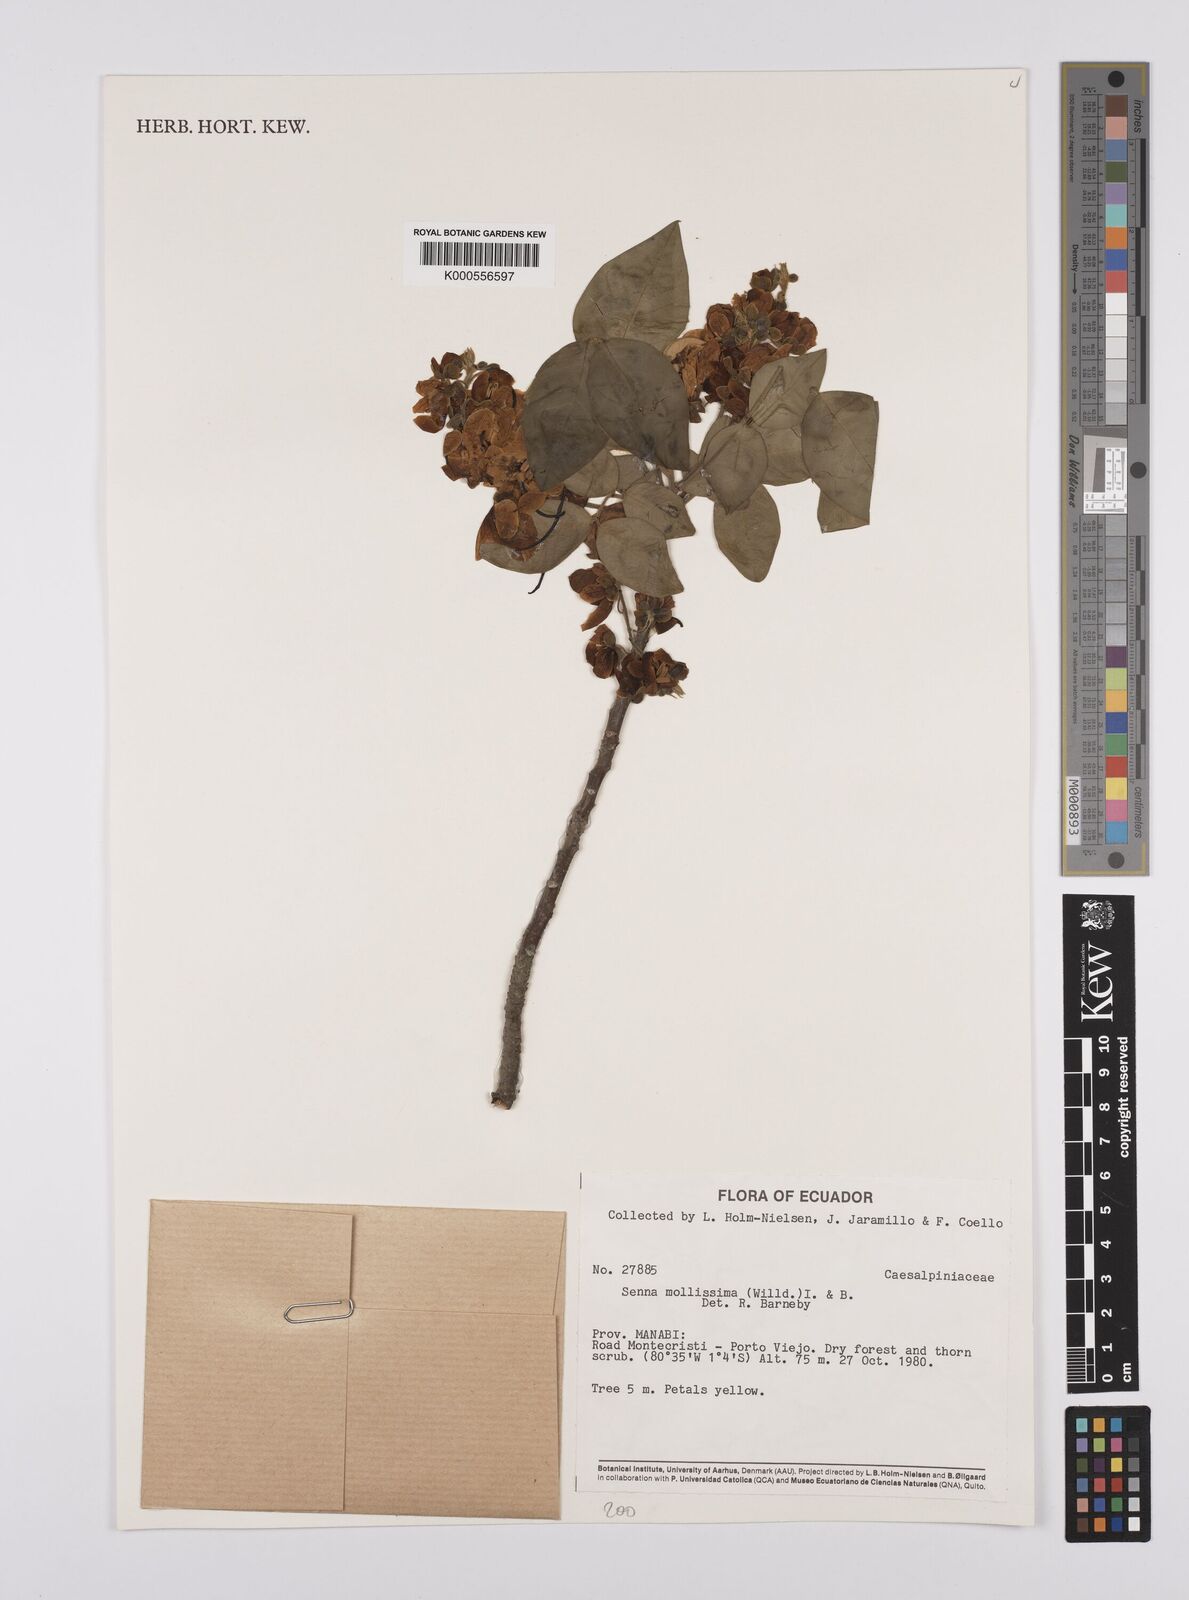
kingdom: Plantae
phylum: Tracheophyta
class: Magnoliopsida
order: Fabales
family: Fabaceae
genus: Senna
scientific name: Senna mollissima
